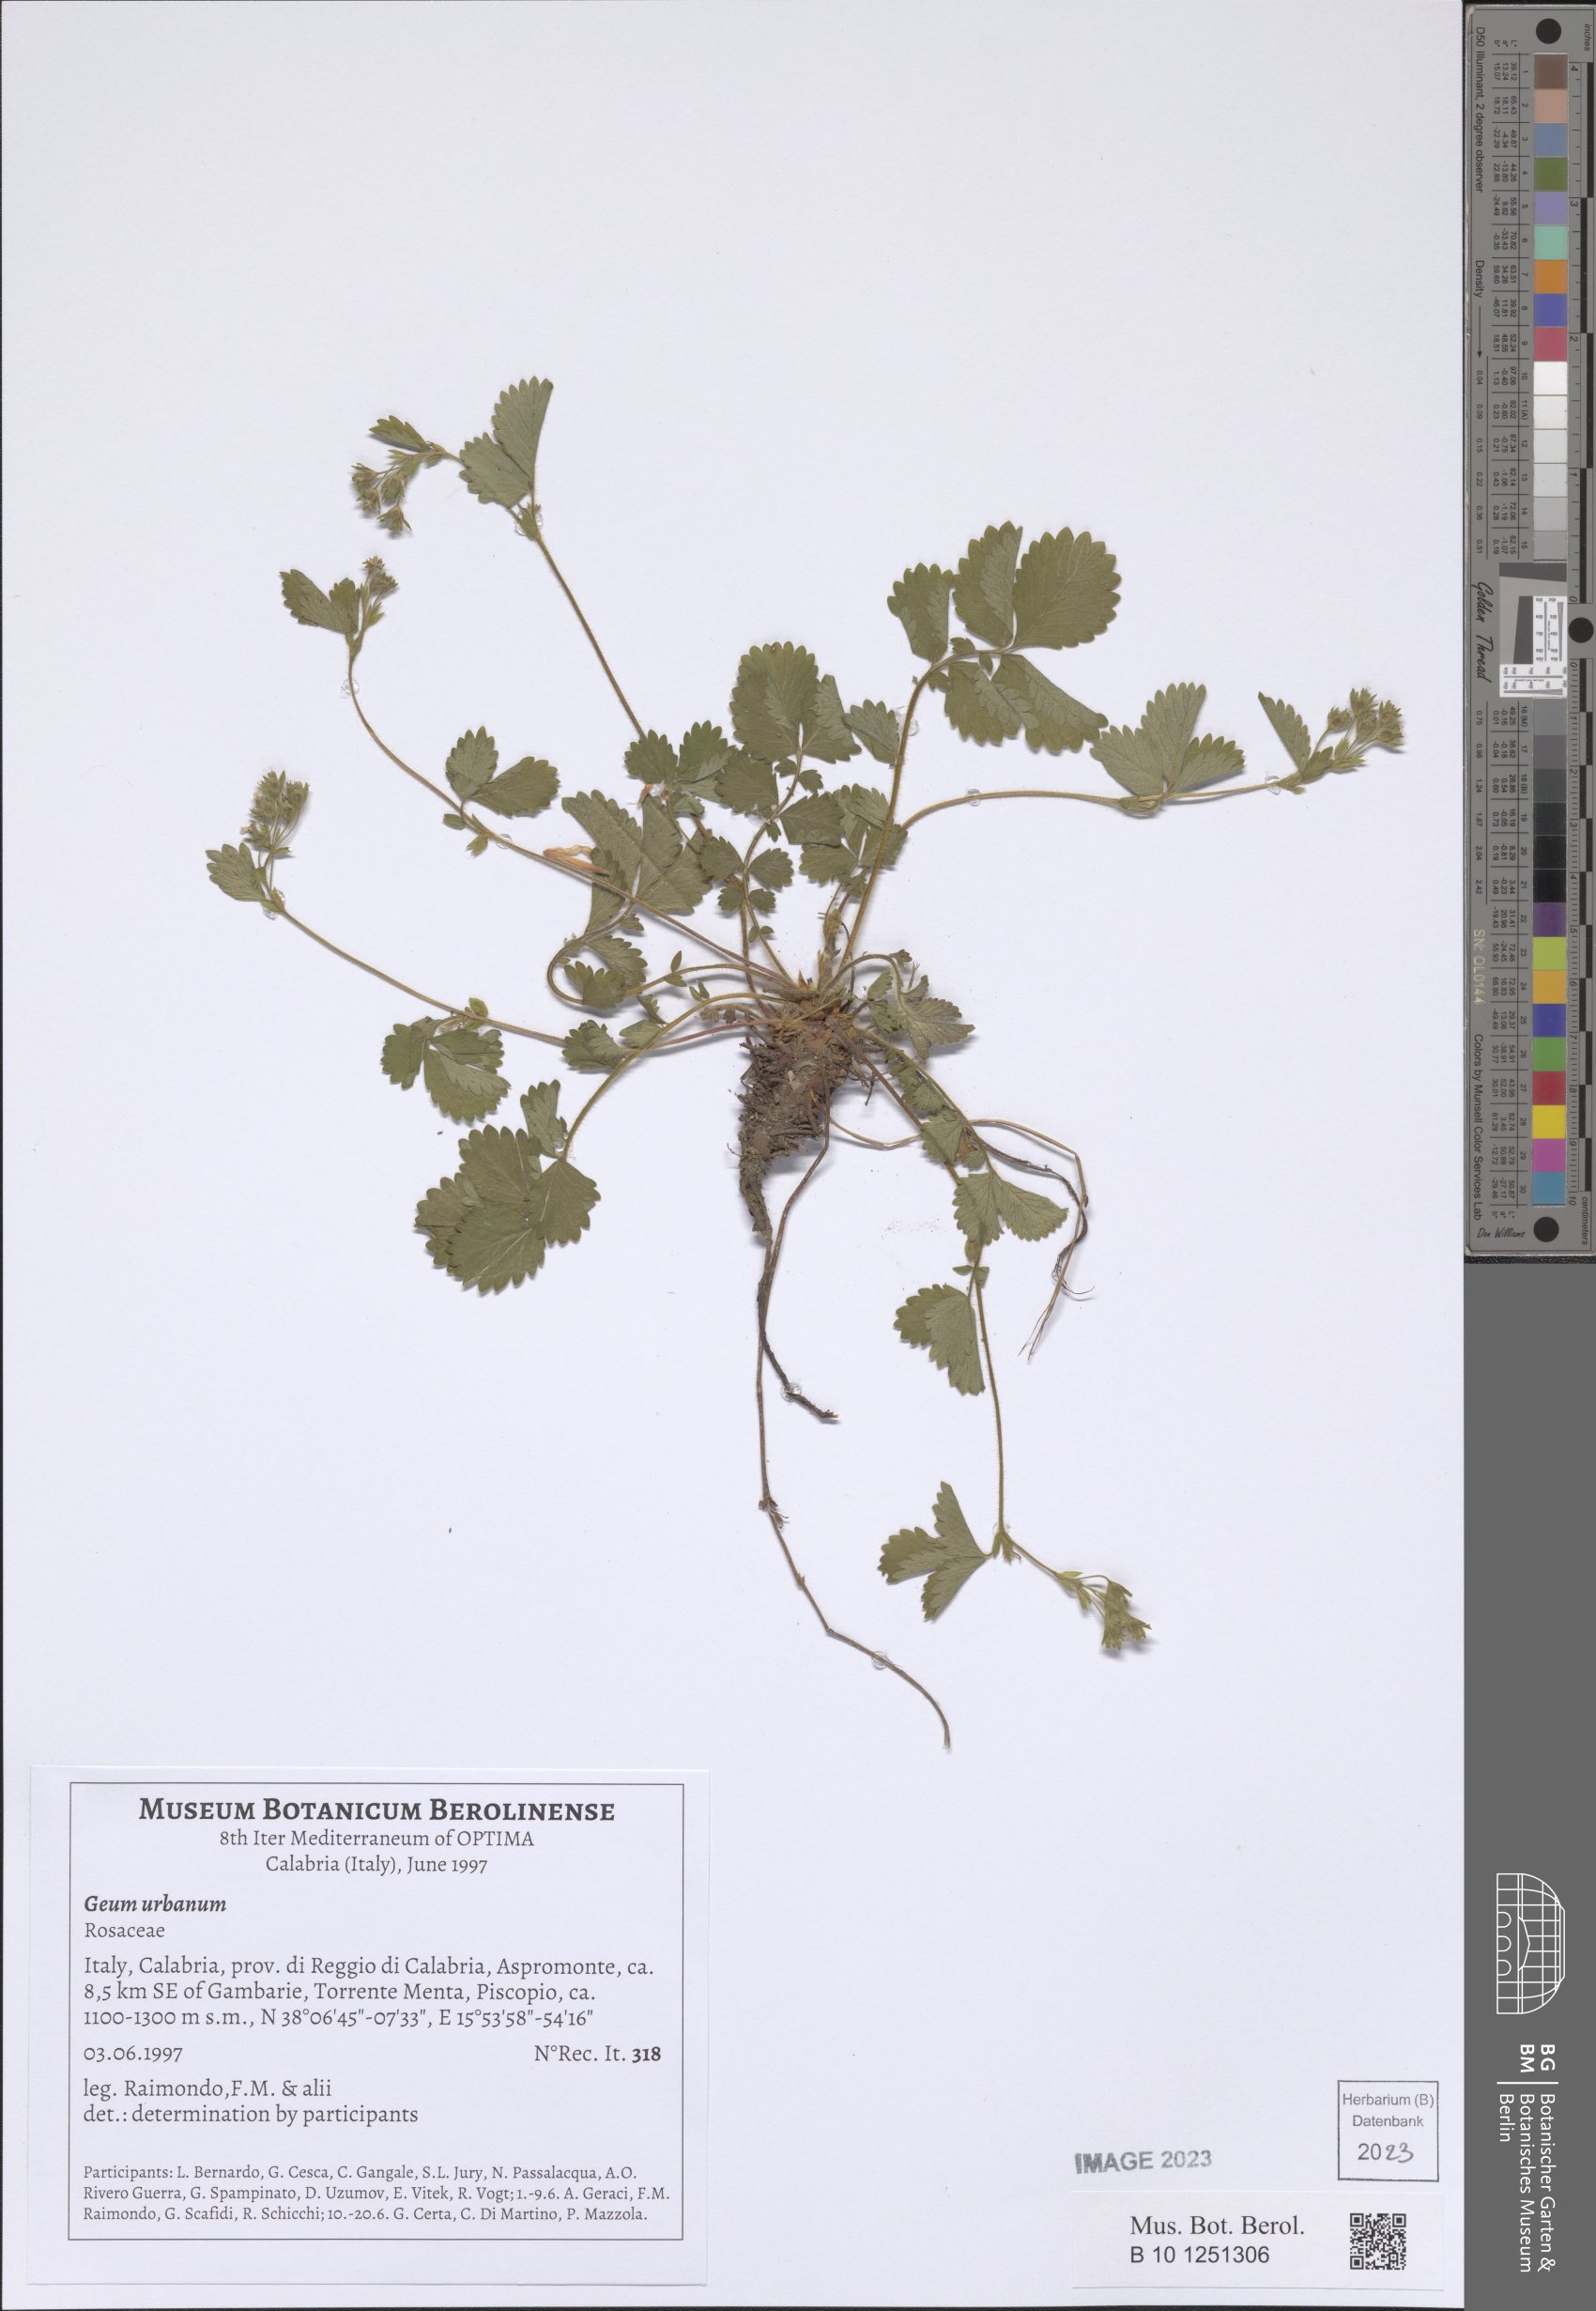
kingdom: Plantae
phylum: Tracheophyta
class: Magnoliopsida
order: Rosales
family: Rosaceae
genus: Geum
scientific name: Geum urbanum
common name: Wood avens
